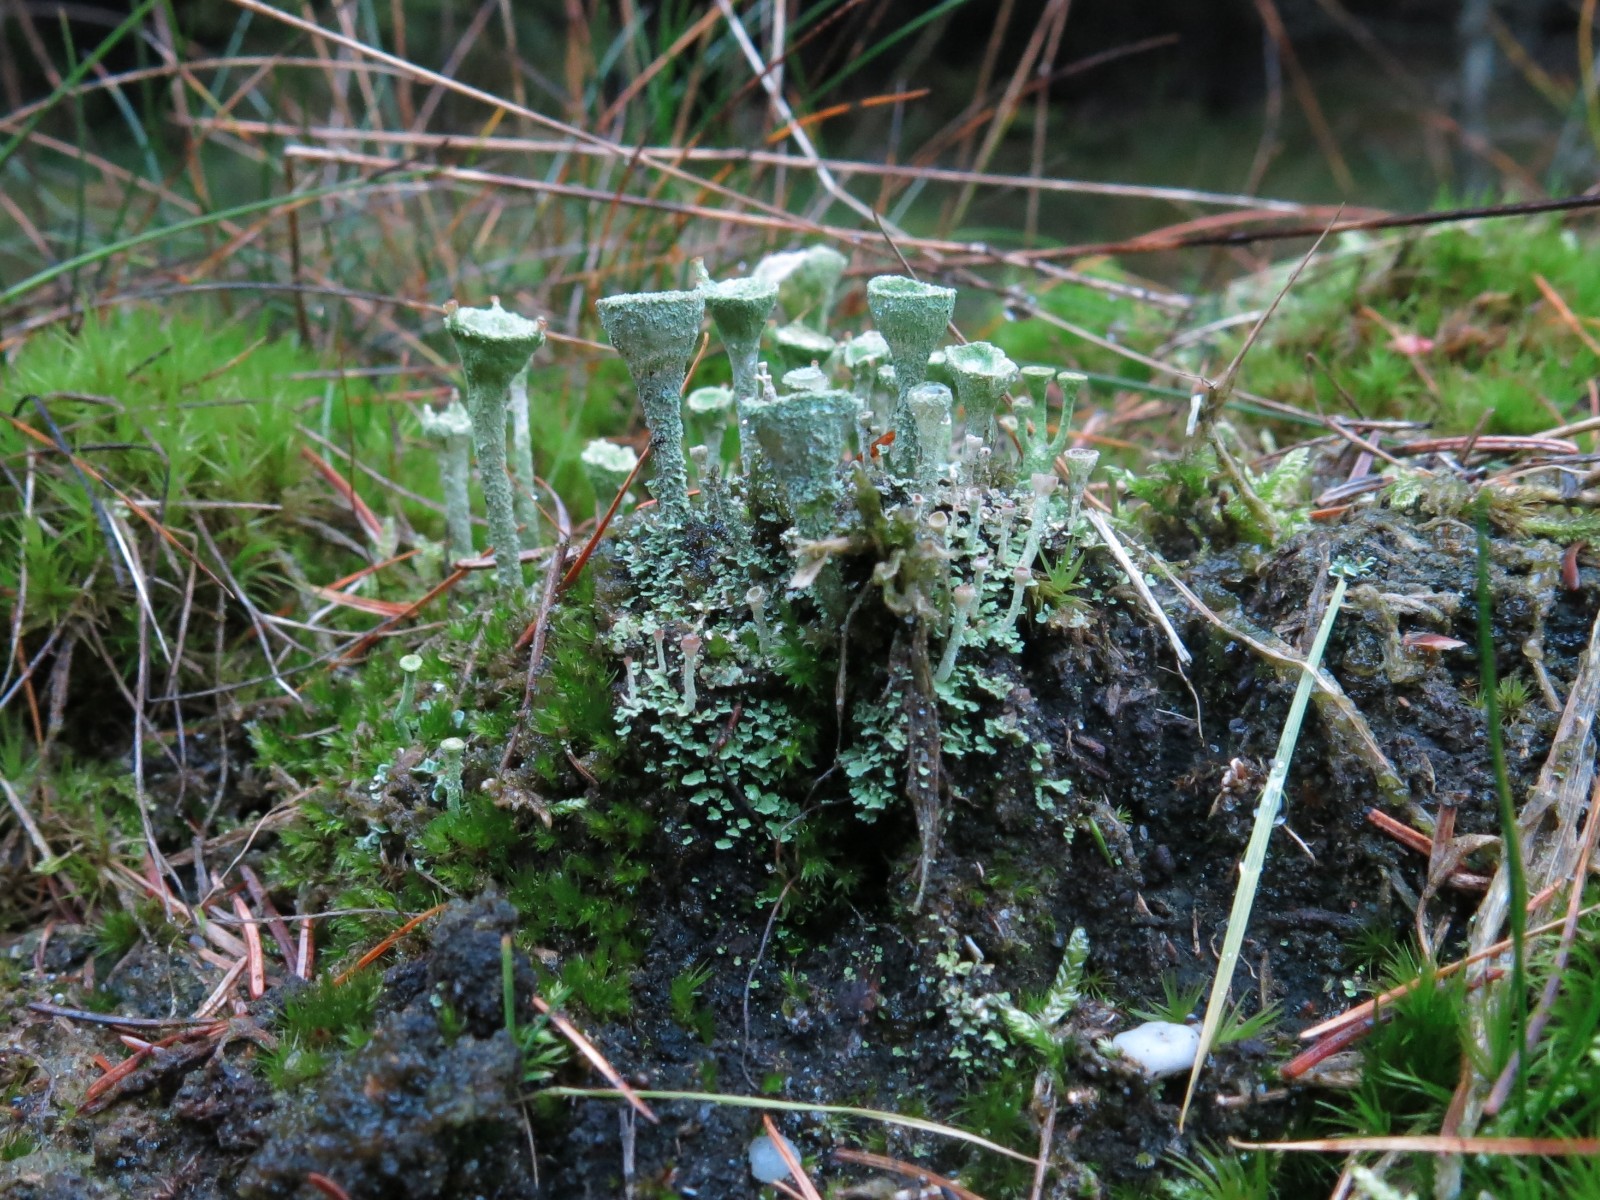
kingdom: Fungi
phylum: Ascomycota
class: Lecanoromycetes
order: Lecanorales
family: Cladoniaceae
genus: Cladonia
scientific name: Cladonia
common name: brungrøn bægerlav
